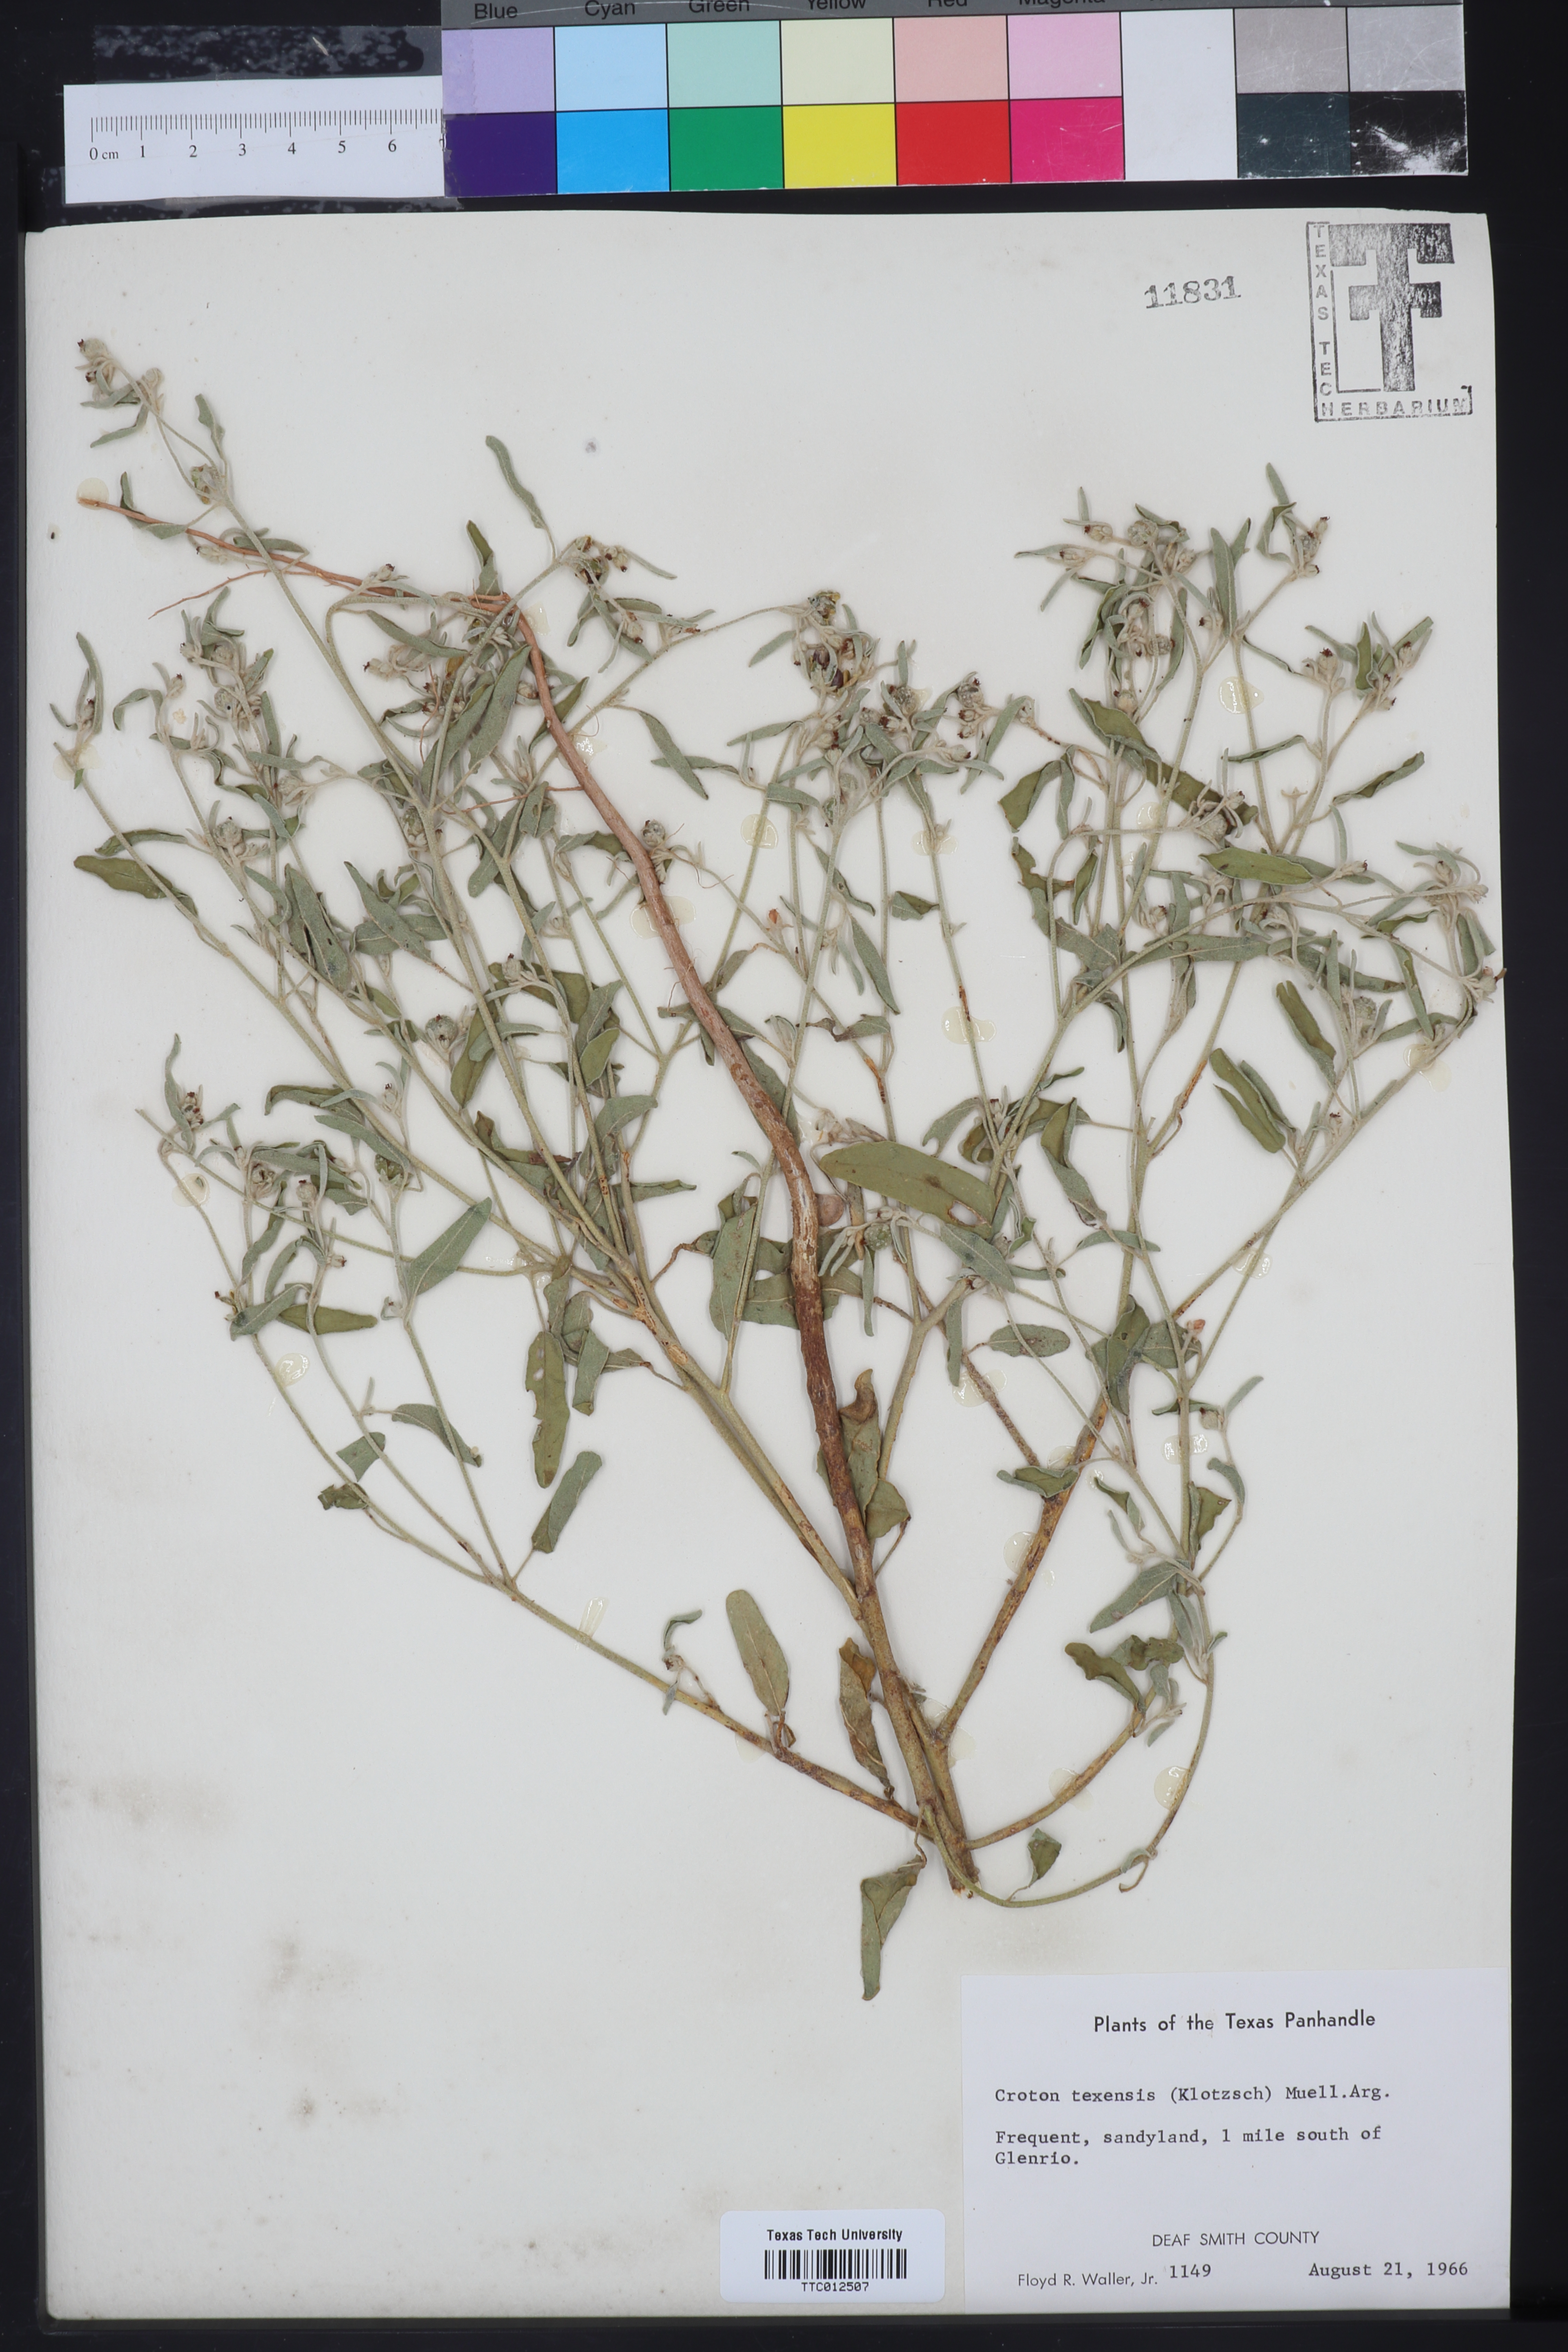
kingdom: Plantae
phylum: Tracheophyta
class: Magnoliopsida
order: Malpighiales
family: Euphorbiaceae
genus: Croton
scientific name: Croton texensis
